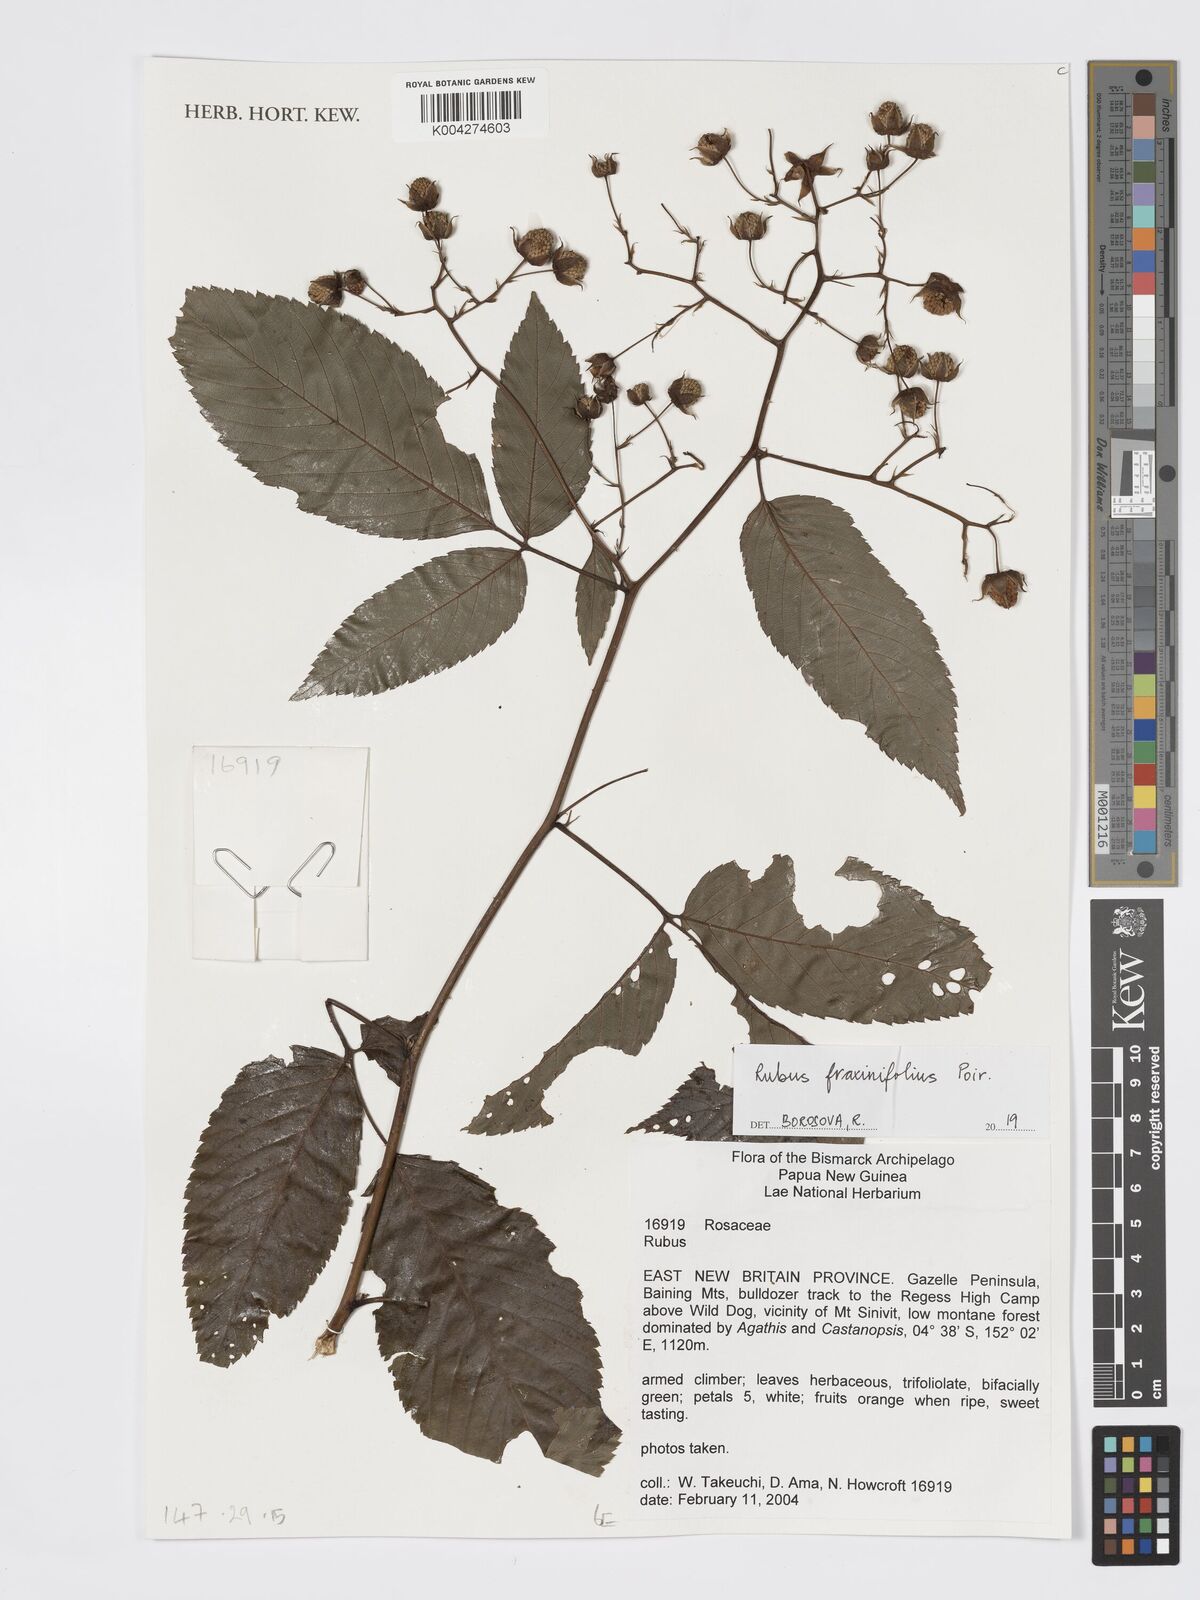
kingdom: Plantae
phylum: Tracheophyta
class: Magnoliopsida
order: Rosales
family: Rosaceae
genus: Rubus
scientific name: Rubus fraxinifolius
